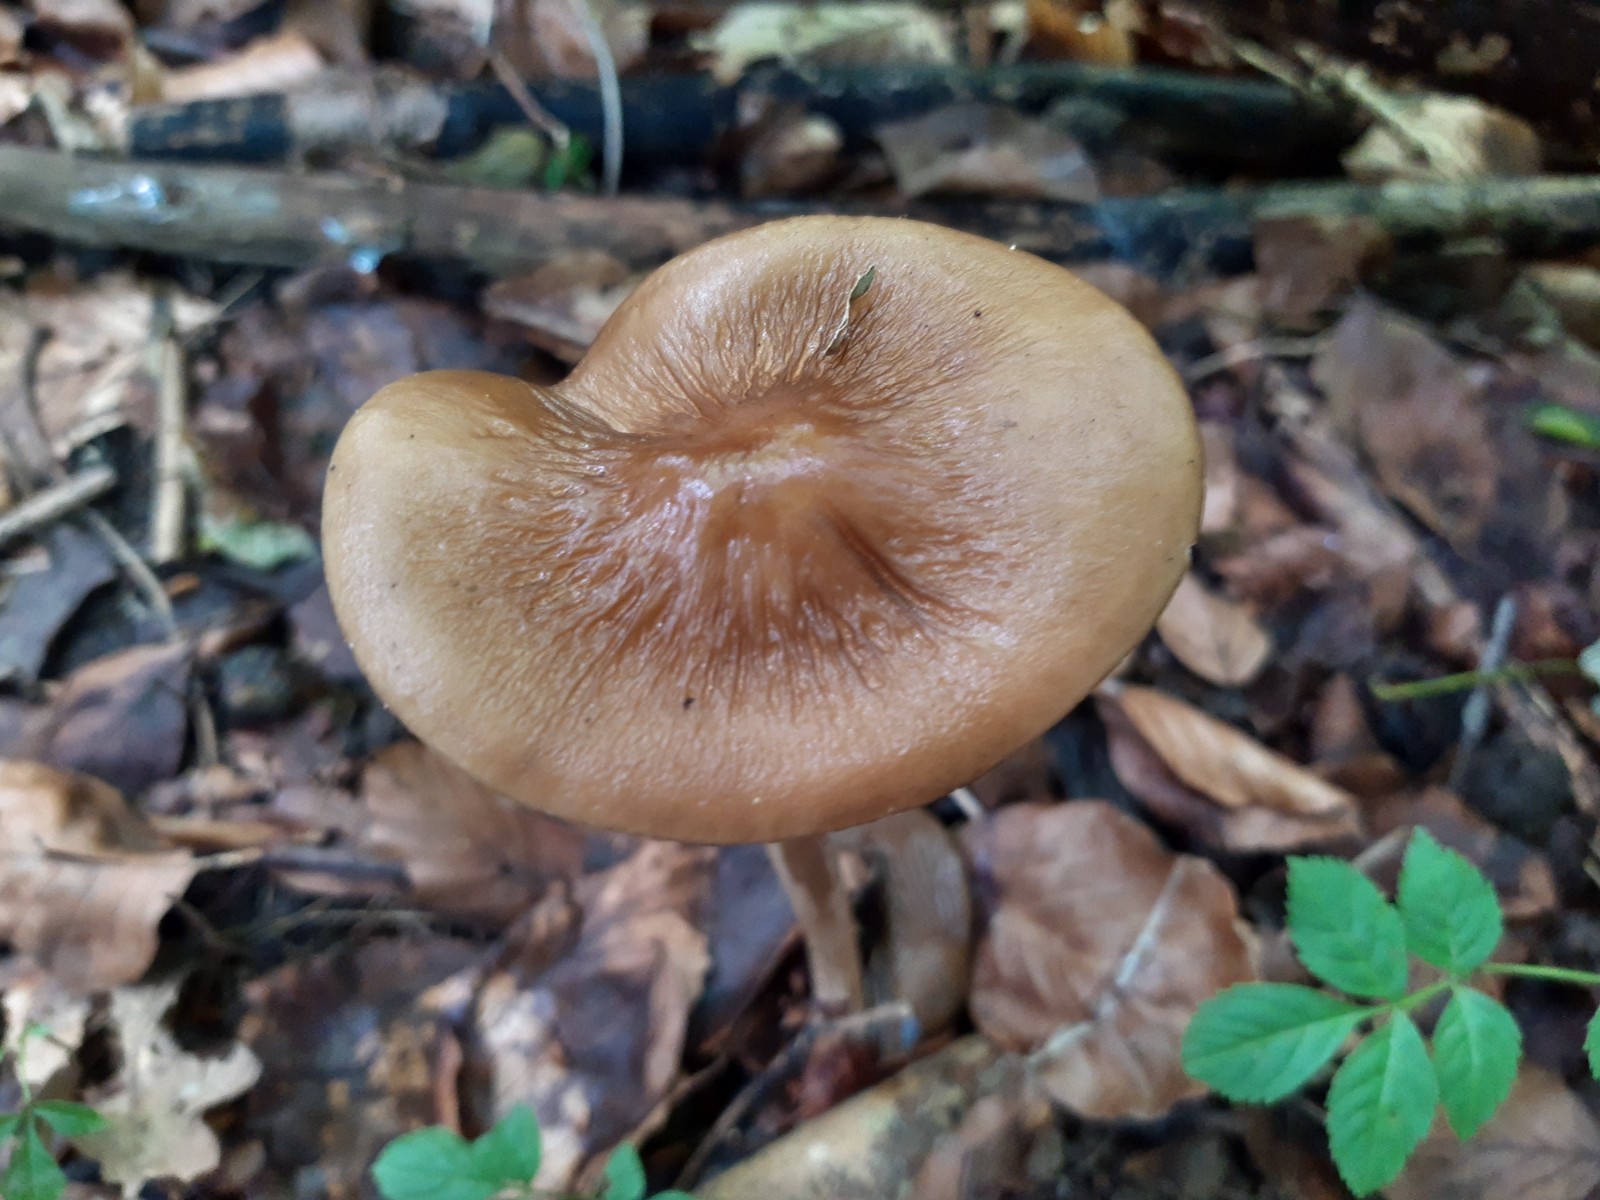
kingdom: Fungi
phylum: Basidiomycota
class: Agaricomycetes
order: Agaricales
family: Physalacriaceae
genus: Hymenopellis
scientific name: Hymenopellis radicata
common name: almindelig pælerodshat
